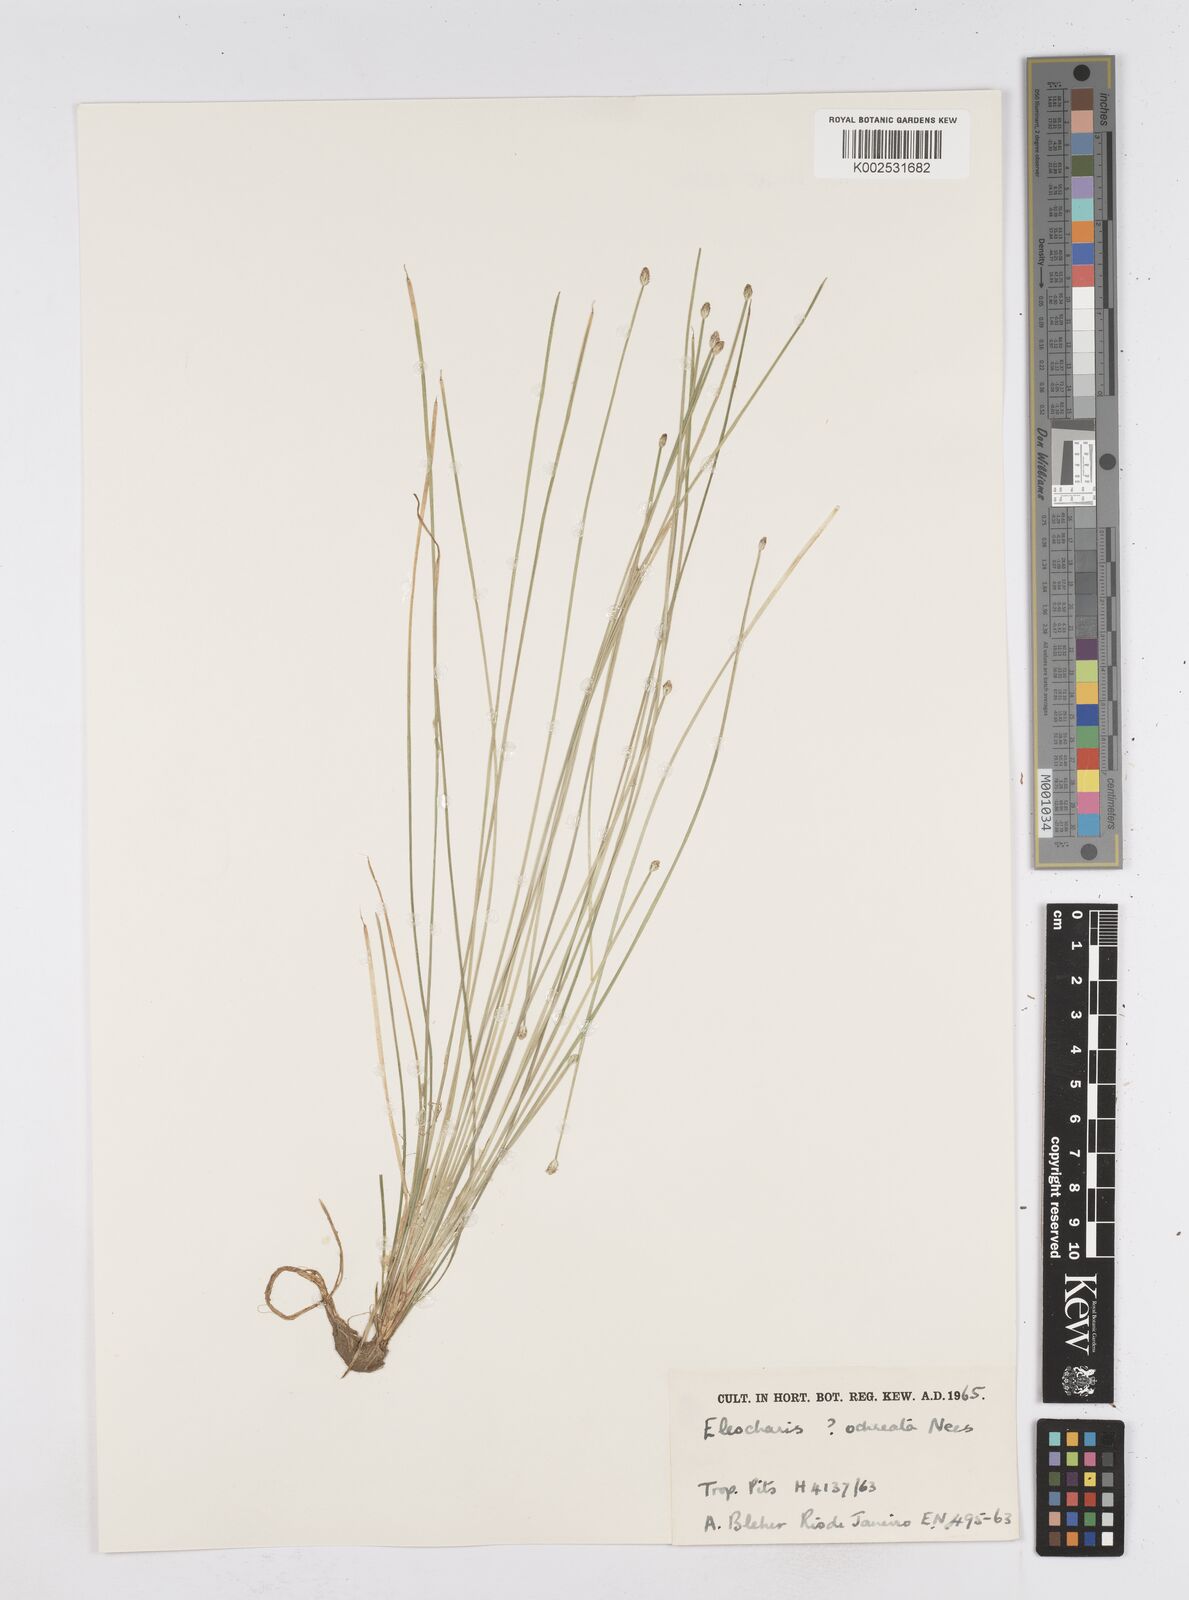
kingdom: Plantae
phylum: Tracheophyta
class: Liliopsida
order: Poales
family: Cyperaceae
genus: Eleocharis
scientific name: Eleocharis
